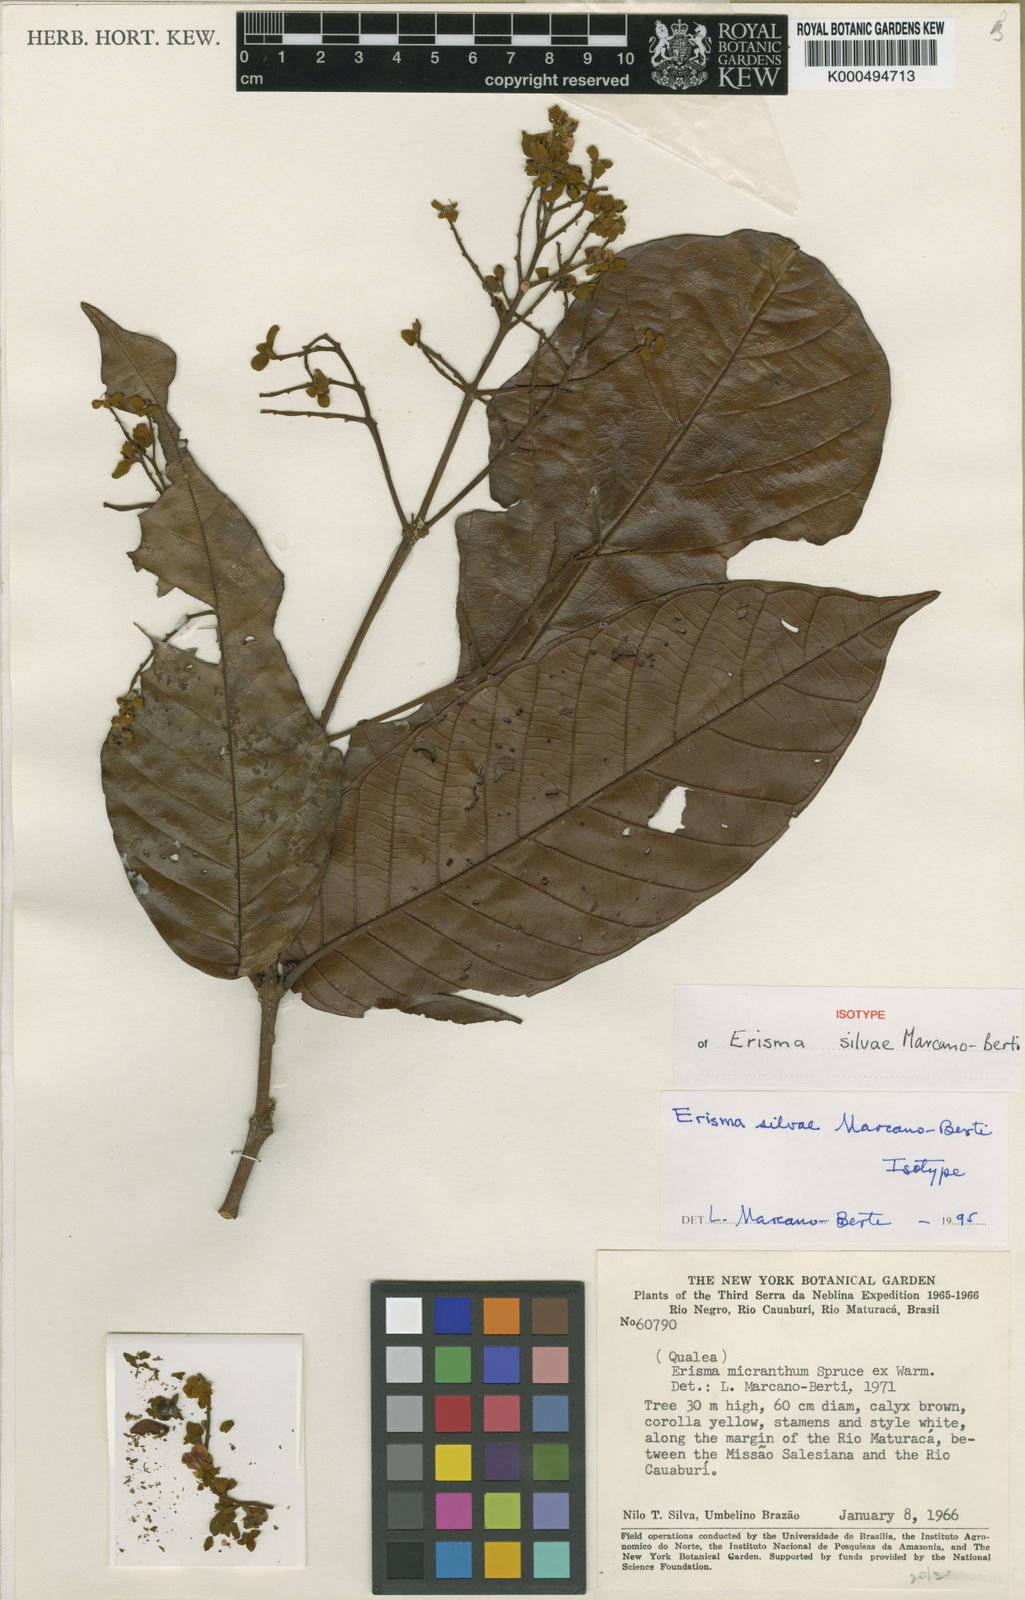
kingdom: Plantae
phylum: Tracheophyta
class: Magnoliopsida
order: Myrtales
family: Vochysiaceae
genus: Erisma
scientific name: Erisma silvae
